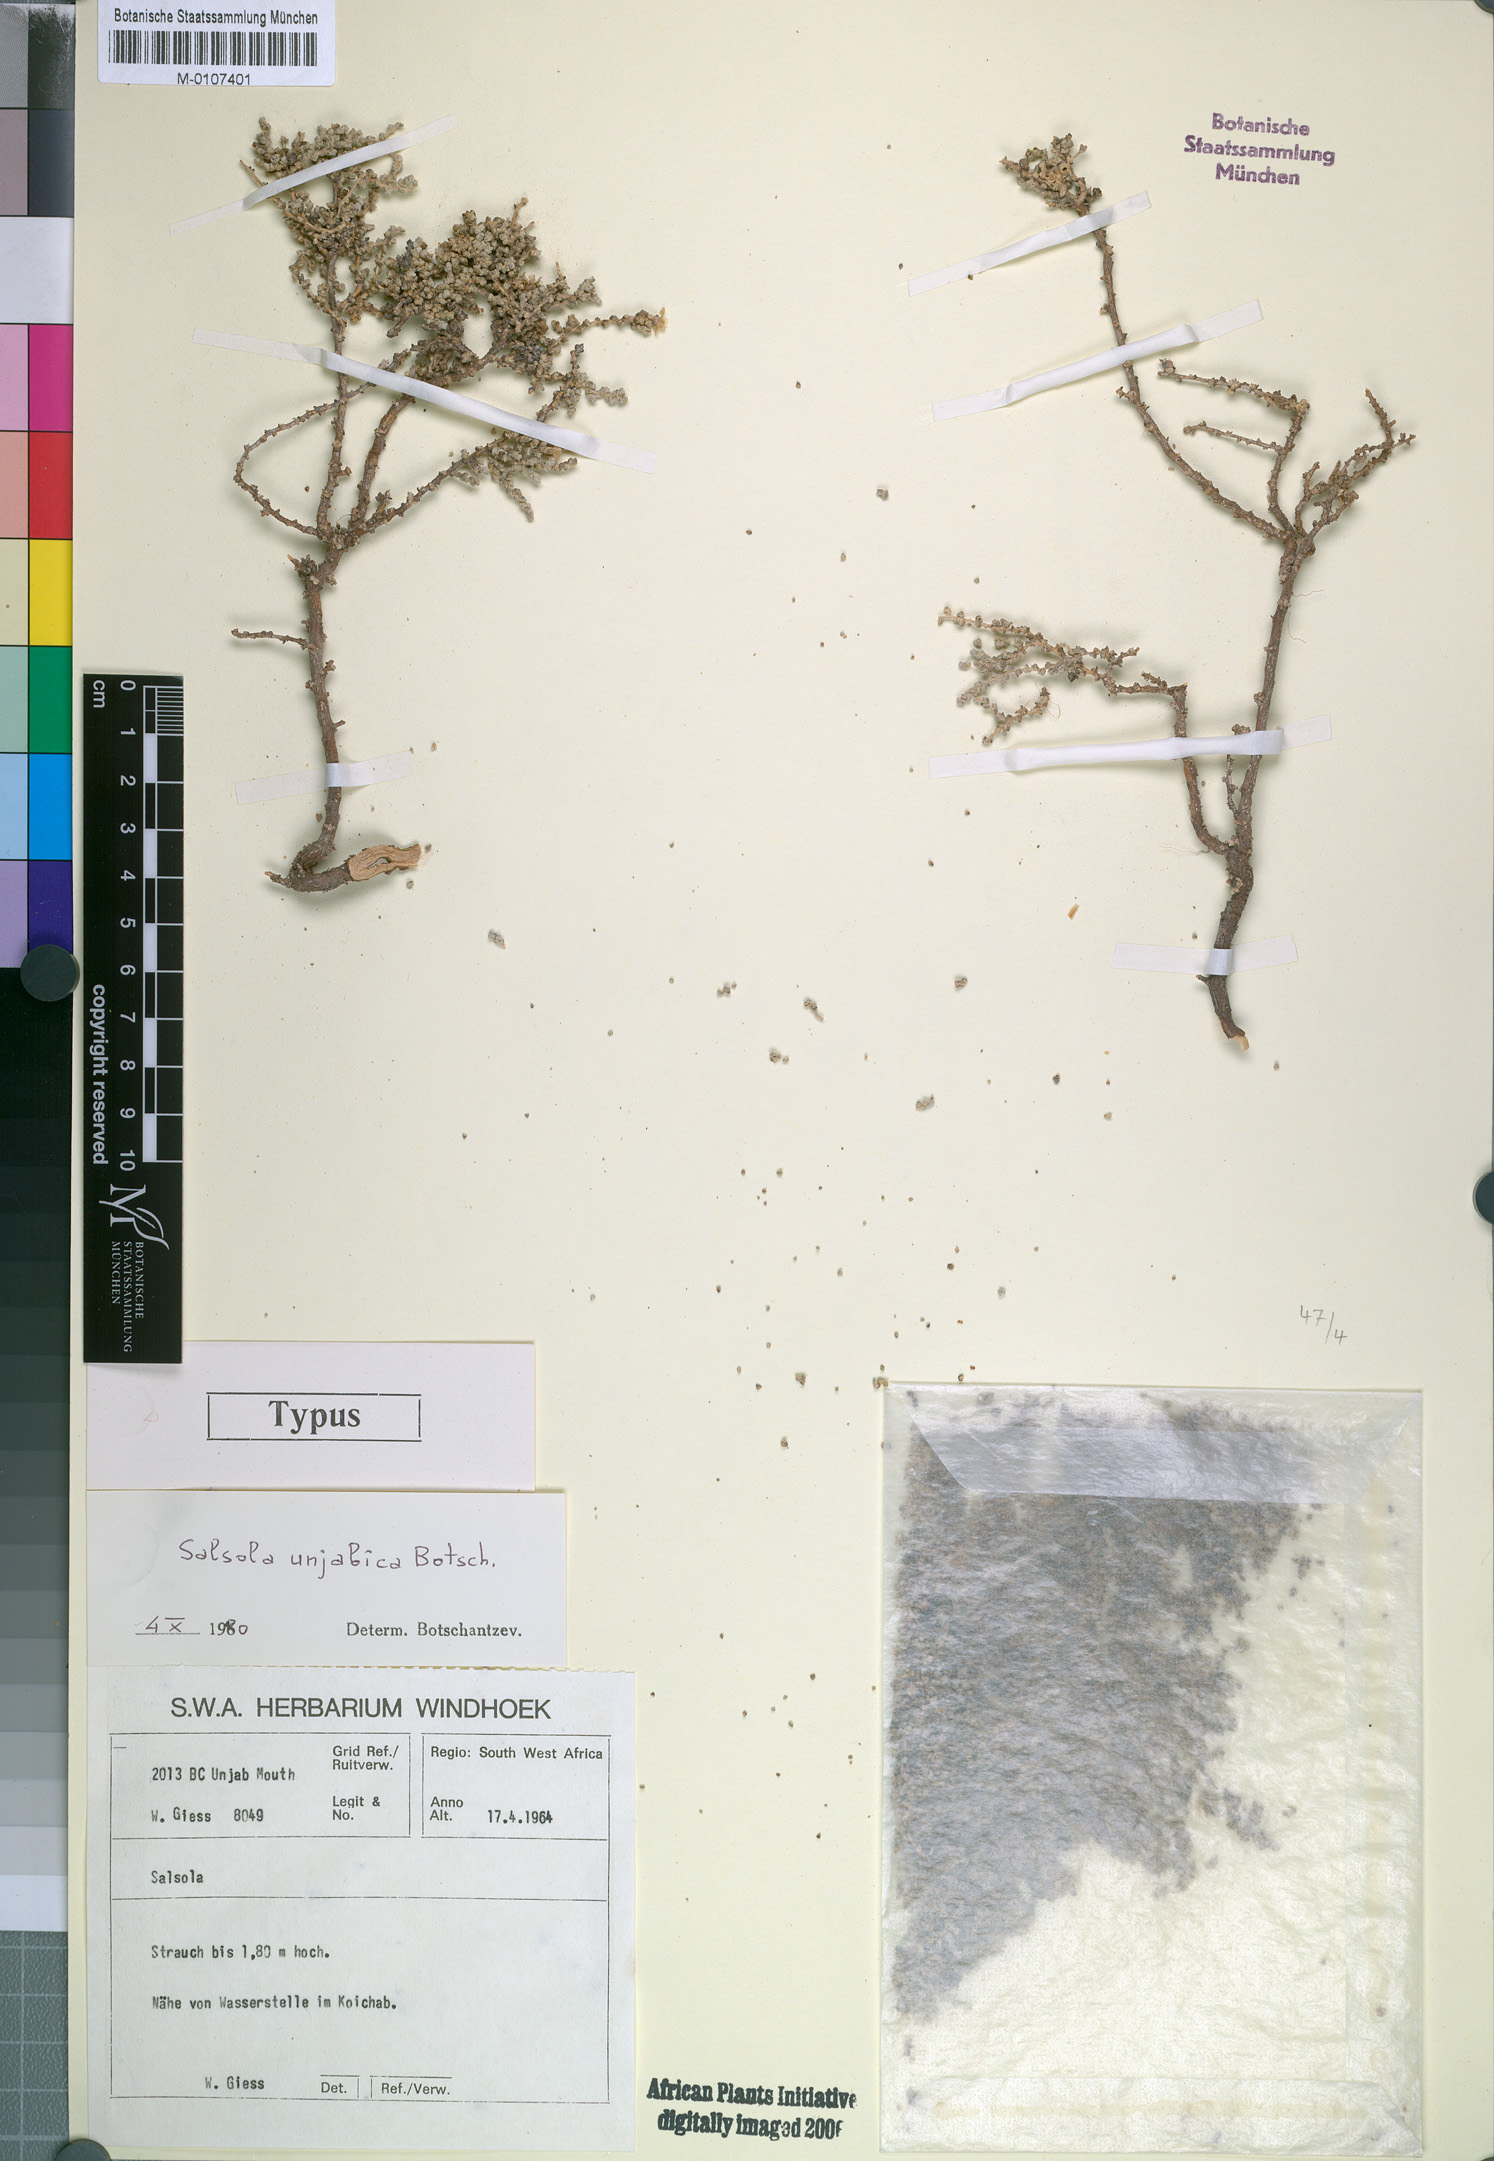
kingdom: Plantae
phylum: Tracheophyta
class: Magnoliopsida
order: Caryophyllales
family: Amaranthaceae
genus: Caroxylon
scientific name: Caroxylon unjabicum
